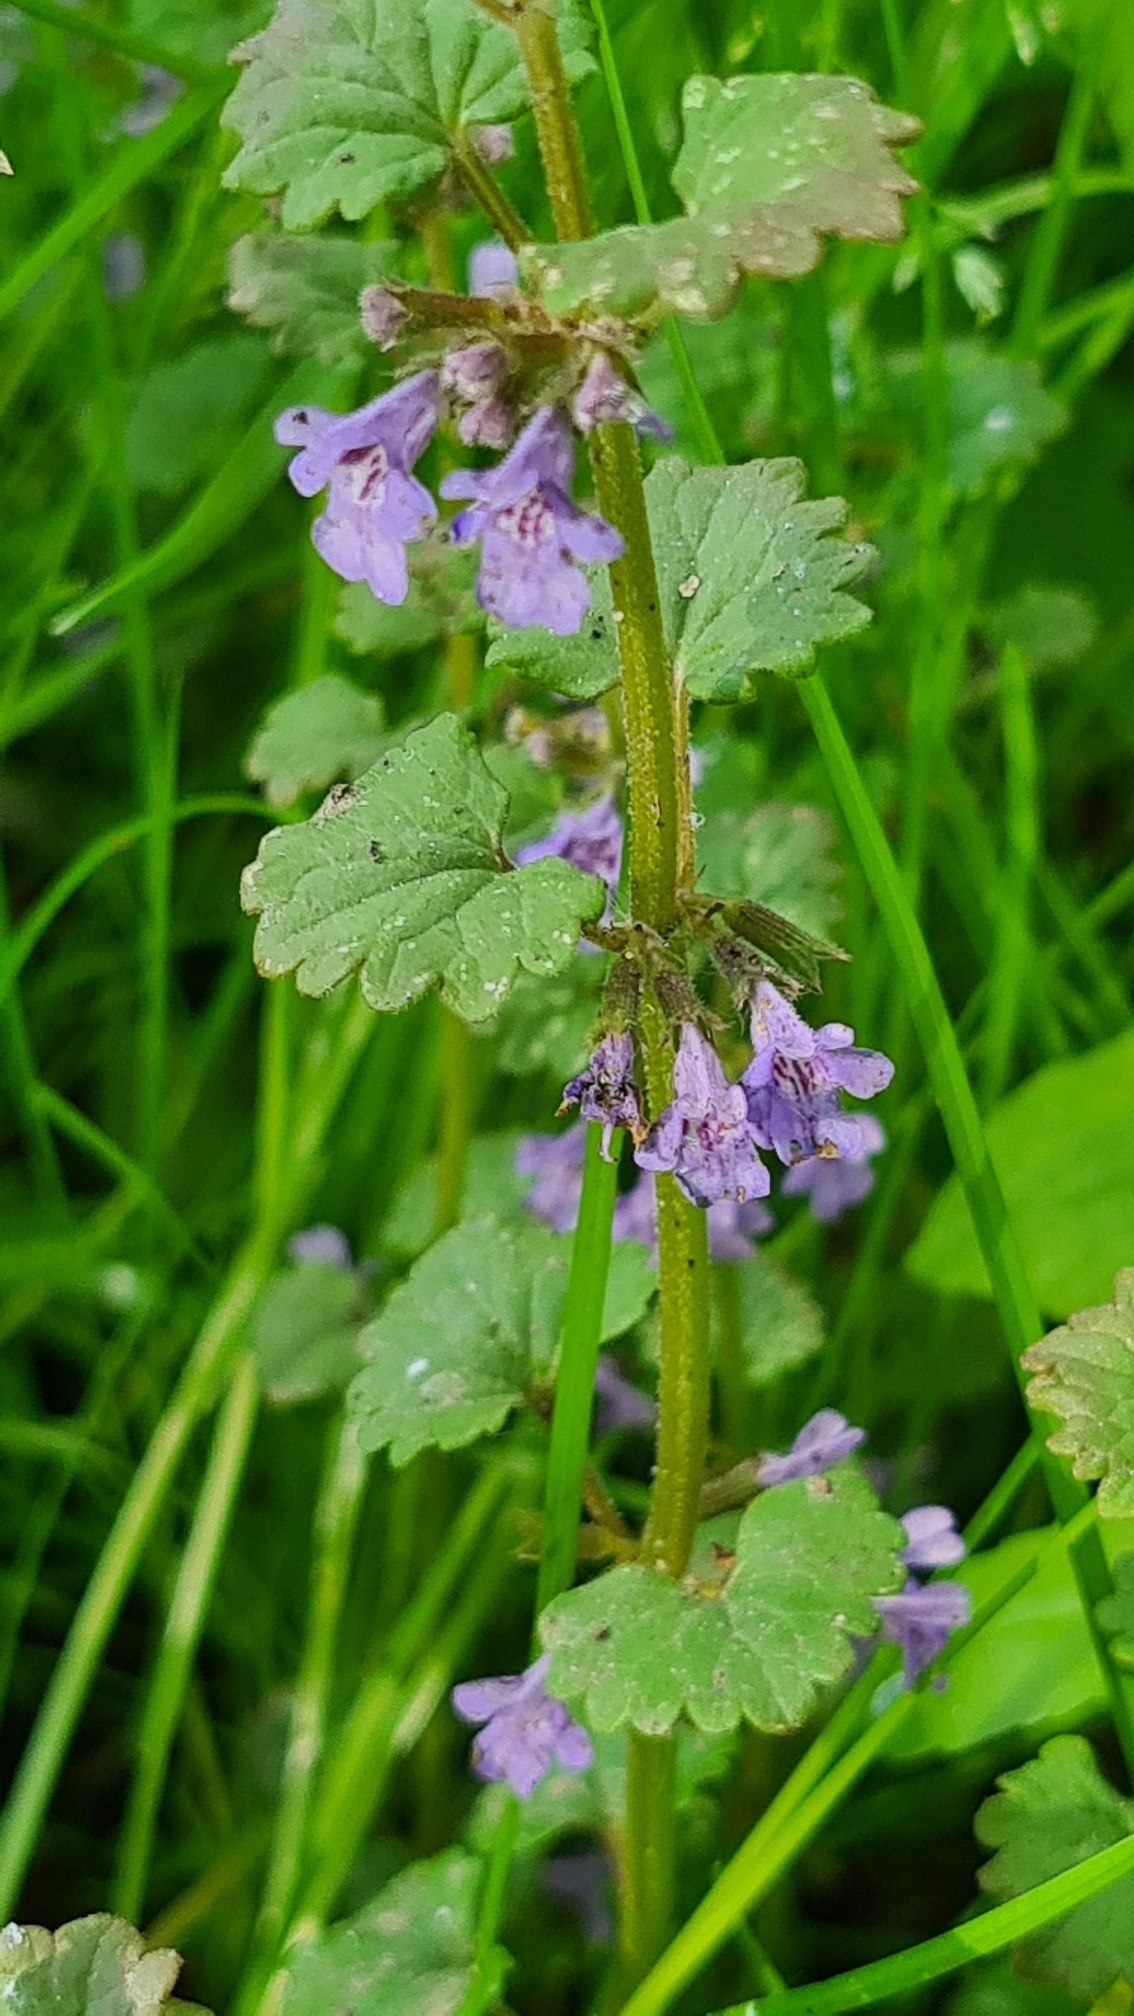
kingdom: Plantae
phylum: Tracheophyta
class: Magnoliopsida
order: Lamiales
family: Lamiaceae
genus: Glechoma
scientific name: Glechoma hederacea
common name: Korsknap
